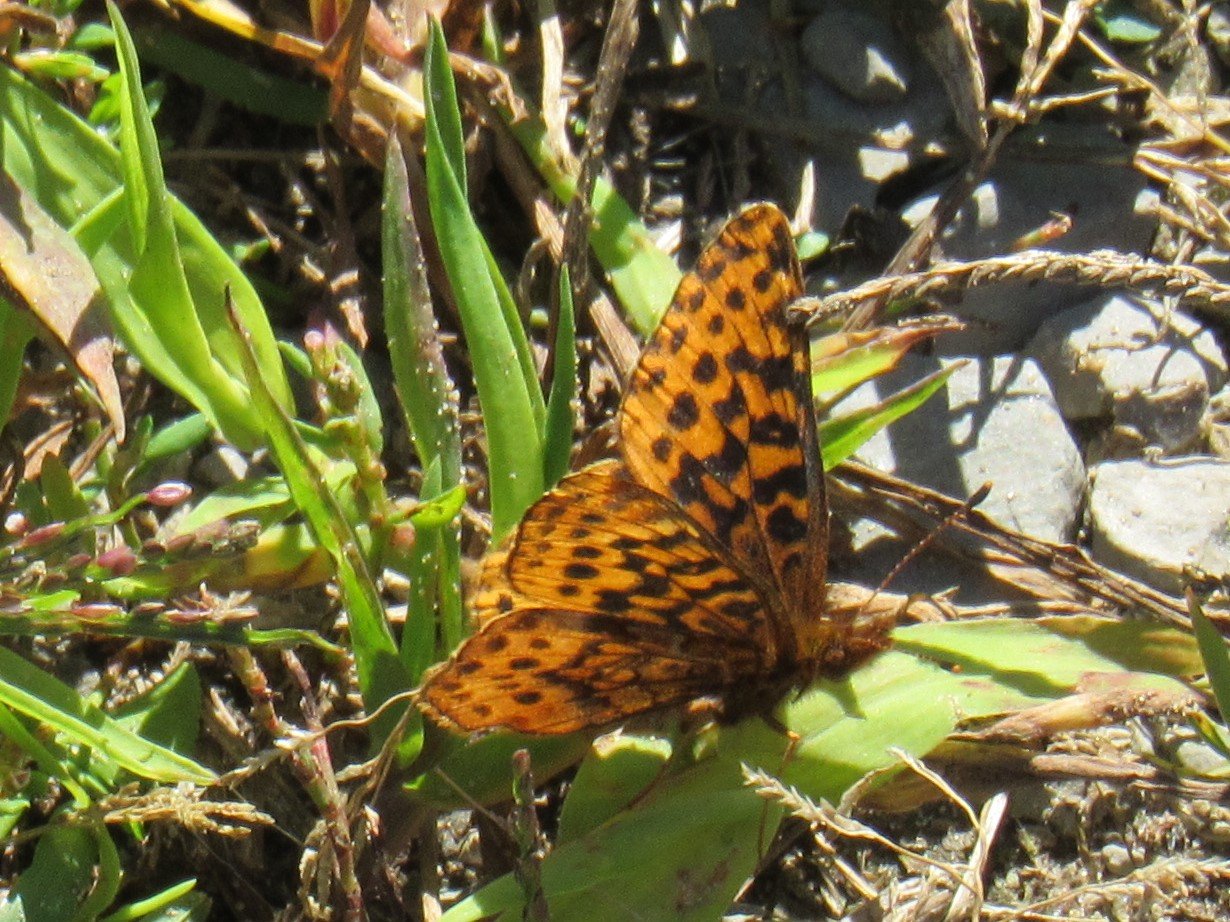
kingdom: Animalia
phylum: Arthropoda
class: Insecta
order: Lepidoptera
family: Nymphalidae
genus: Clossiana
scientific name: Clossiana toddi
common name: Meadow Fritillary
